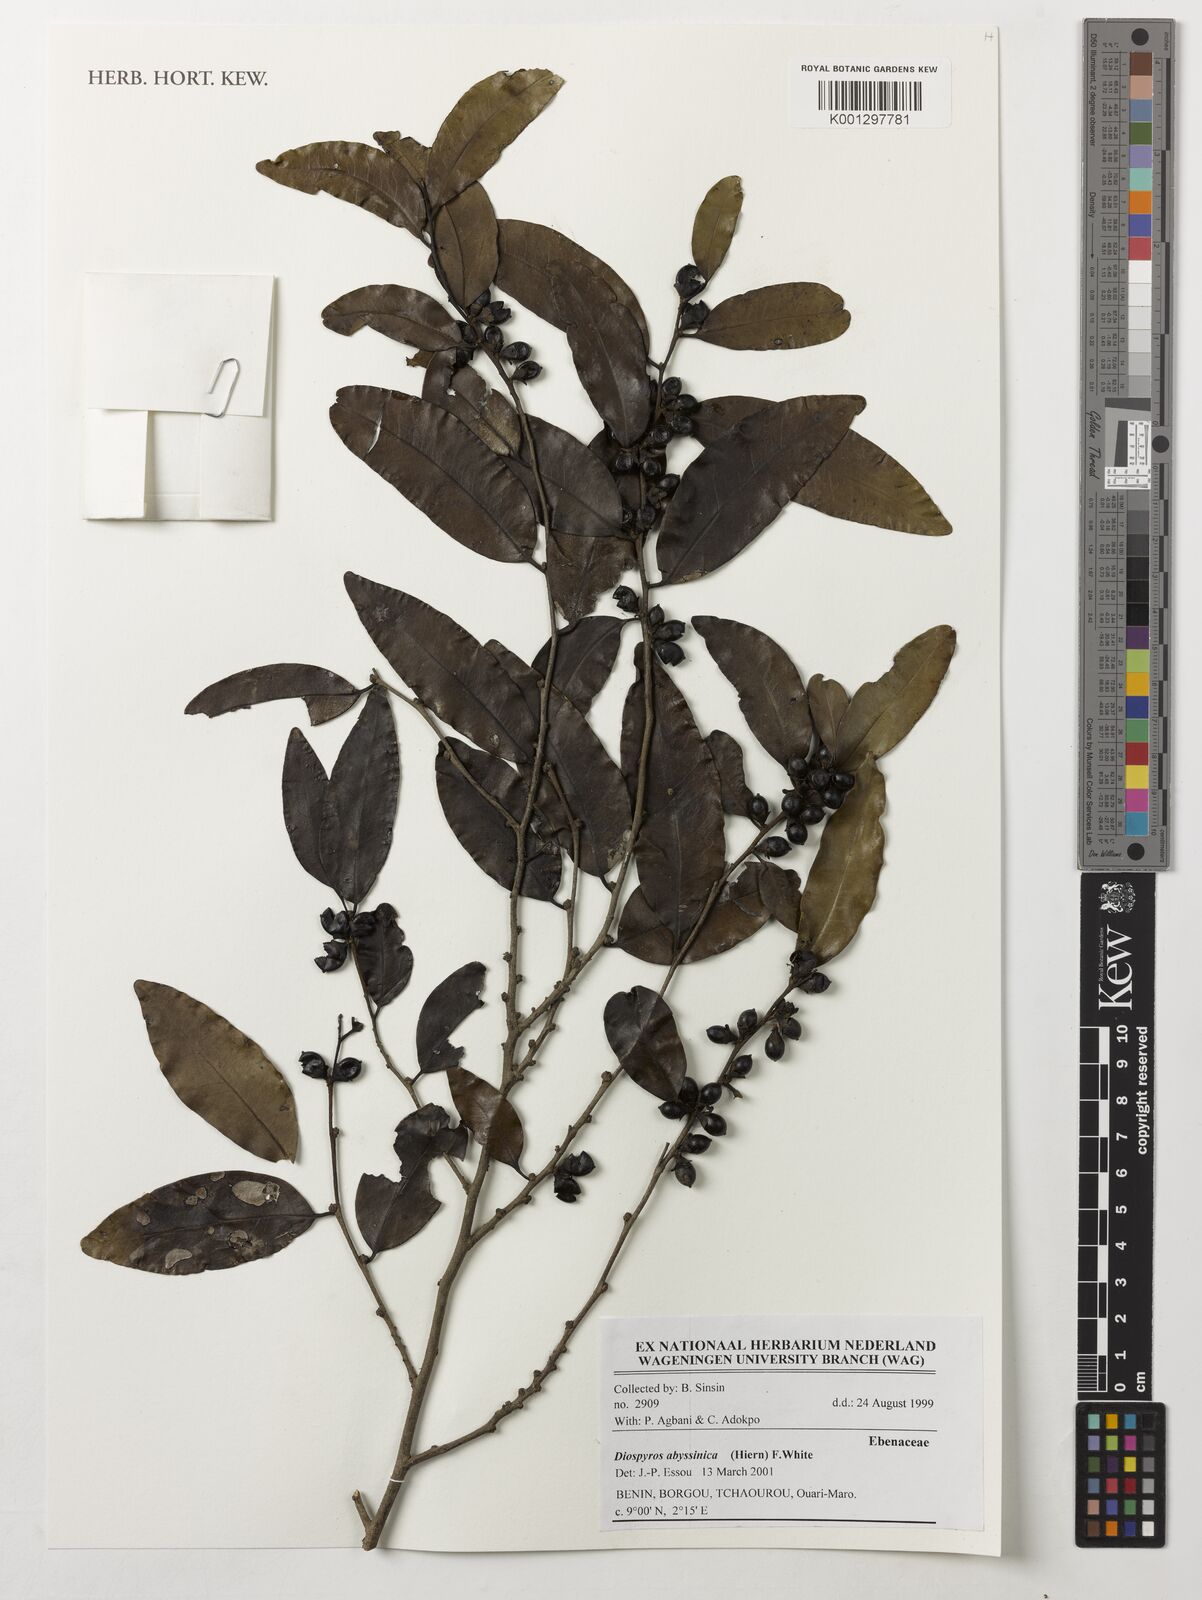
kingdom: Plantae
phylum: Tracheophyta
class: Magnoliopsida
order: Ericales
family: Ebenaceae
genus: Diospyros
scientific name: Diospyros abyssinica
